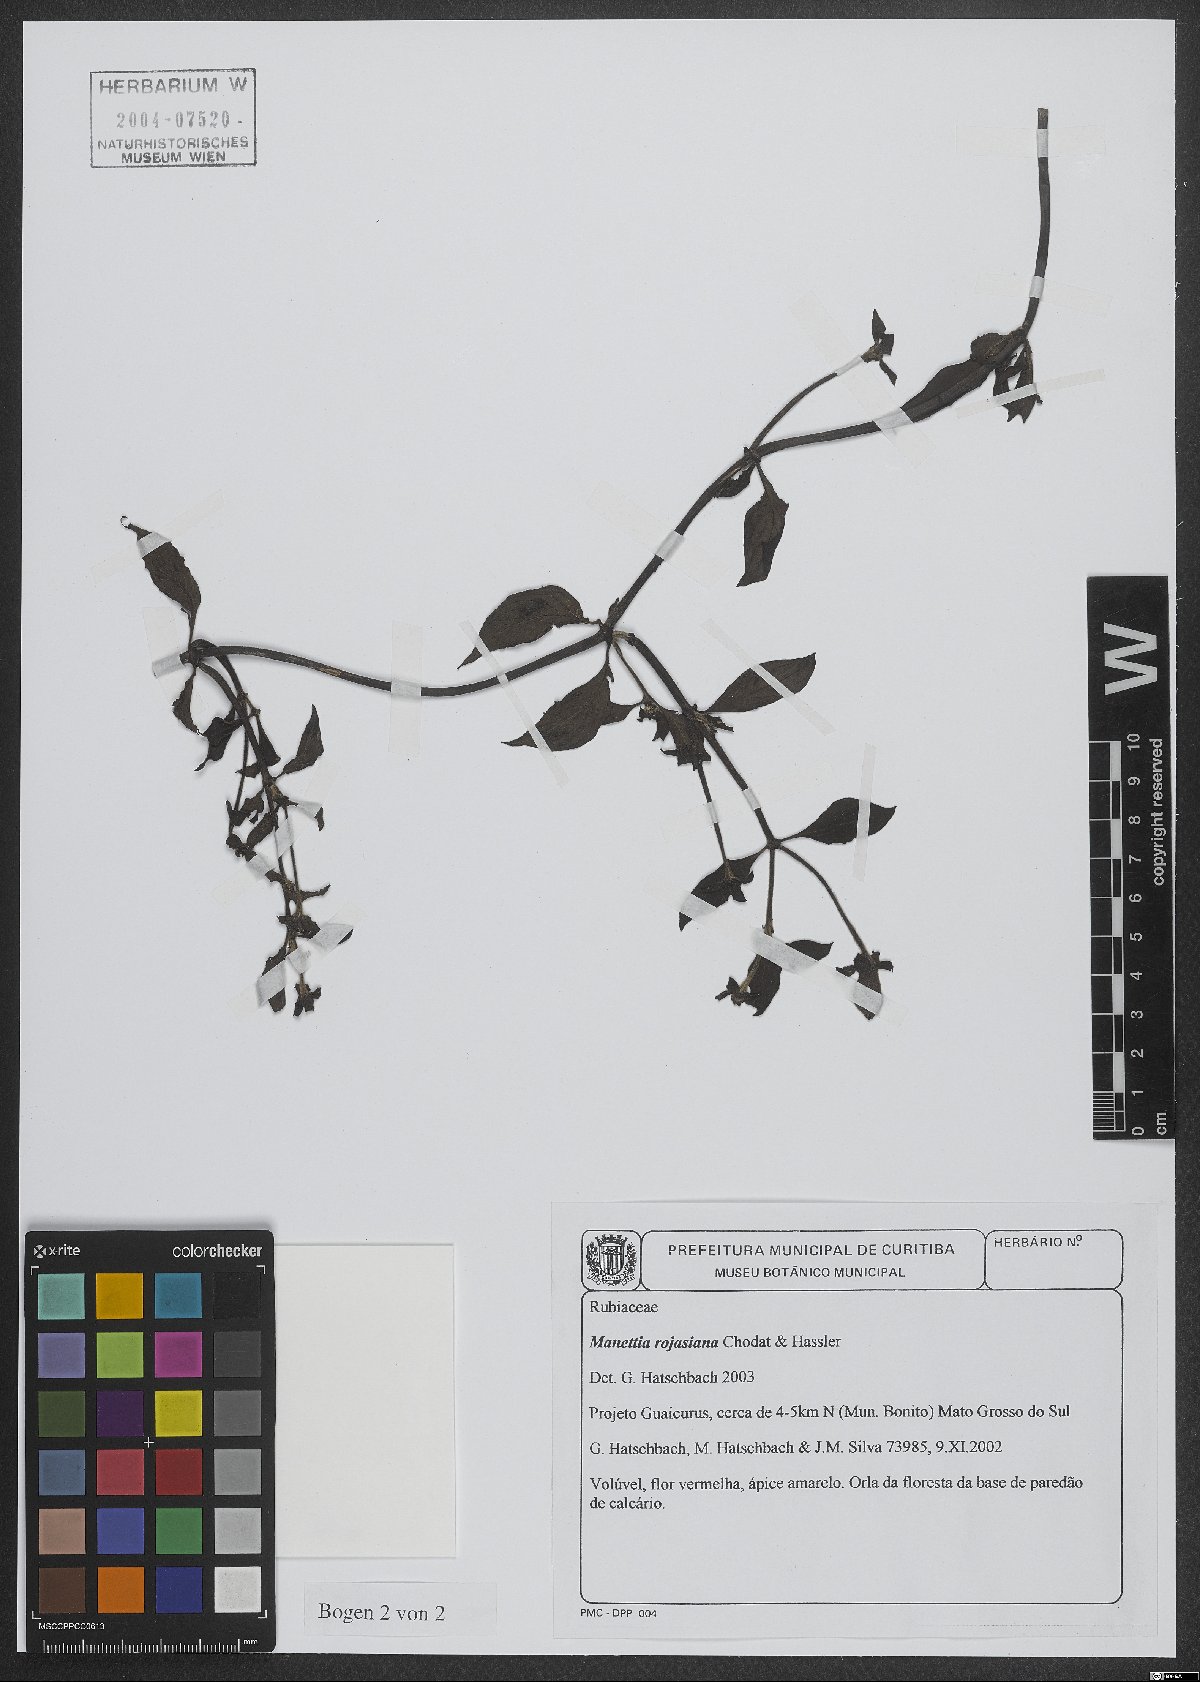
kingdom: Plantae
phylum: Tracheophyta
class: Magnoliopsida
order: Gentianales
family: Rubiaceae
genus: Manettia
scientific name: Manettia rojasiana
